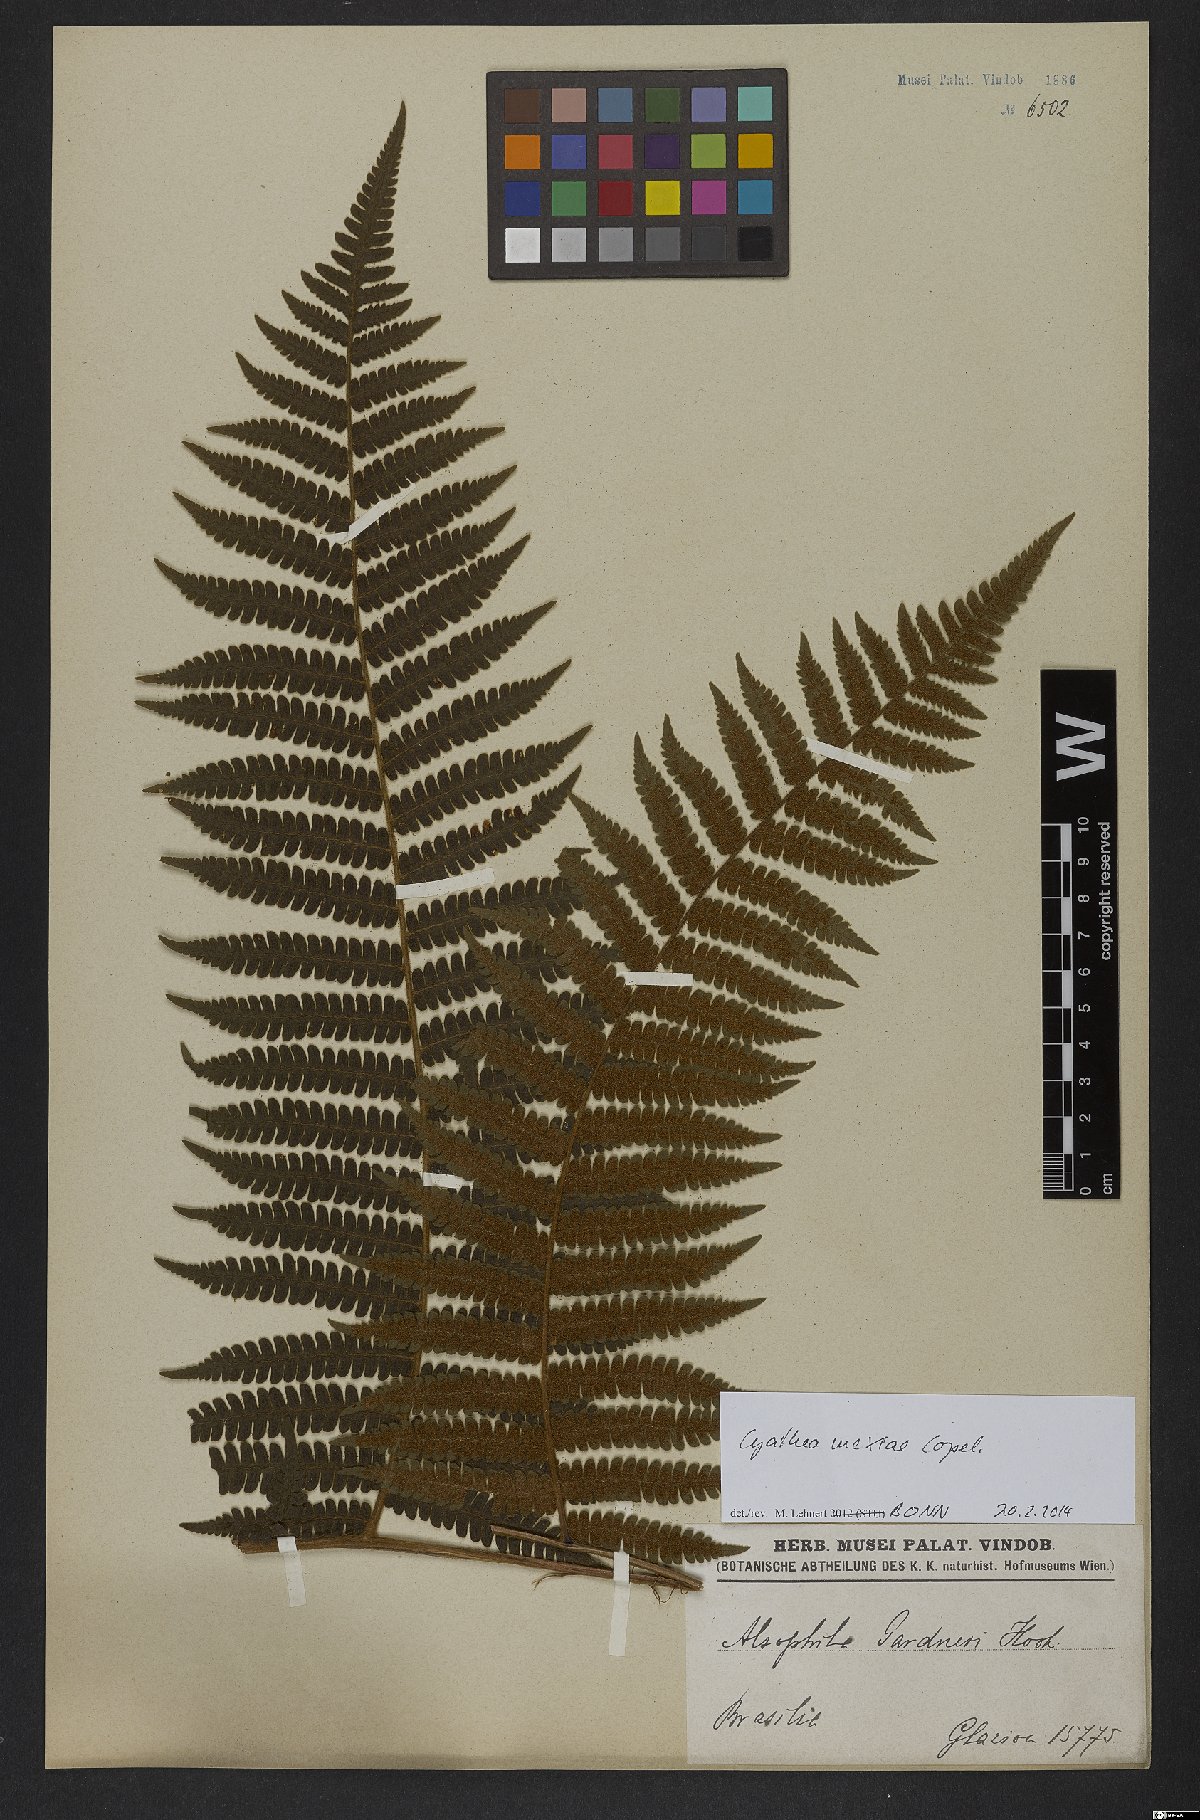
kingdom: Plantae
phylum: Tracheophyta
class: Polypodiopsida
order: Cyatheales
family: Cyatheaceae
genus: Cyathea
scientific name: Cyathea mexiae
